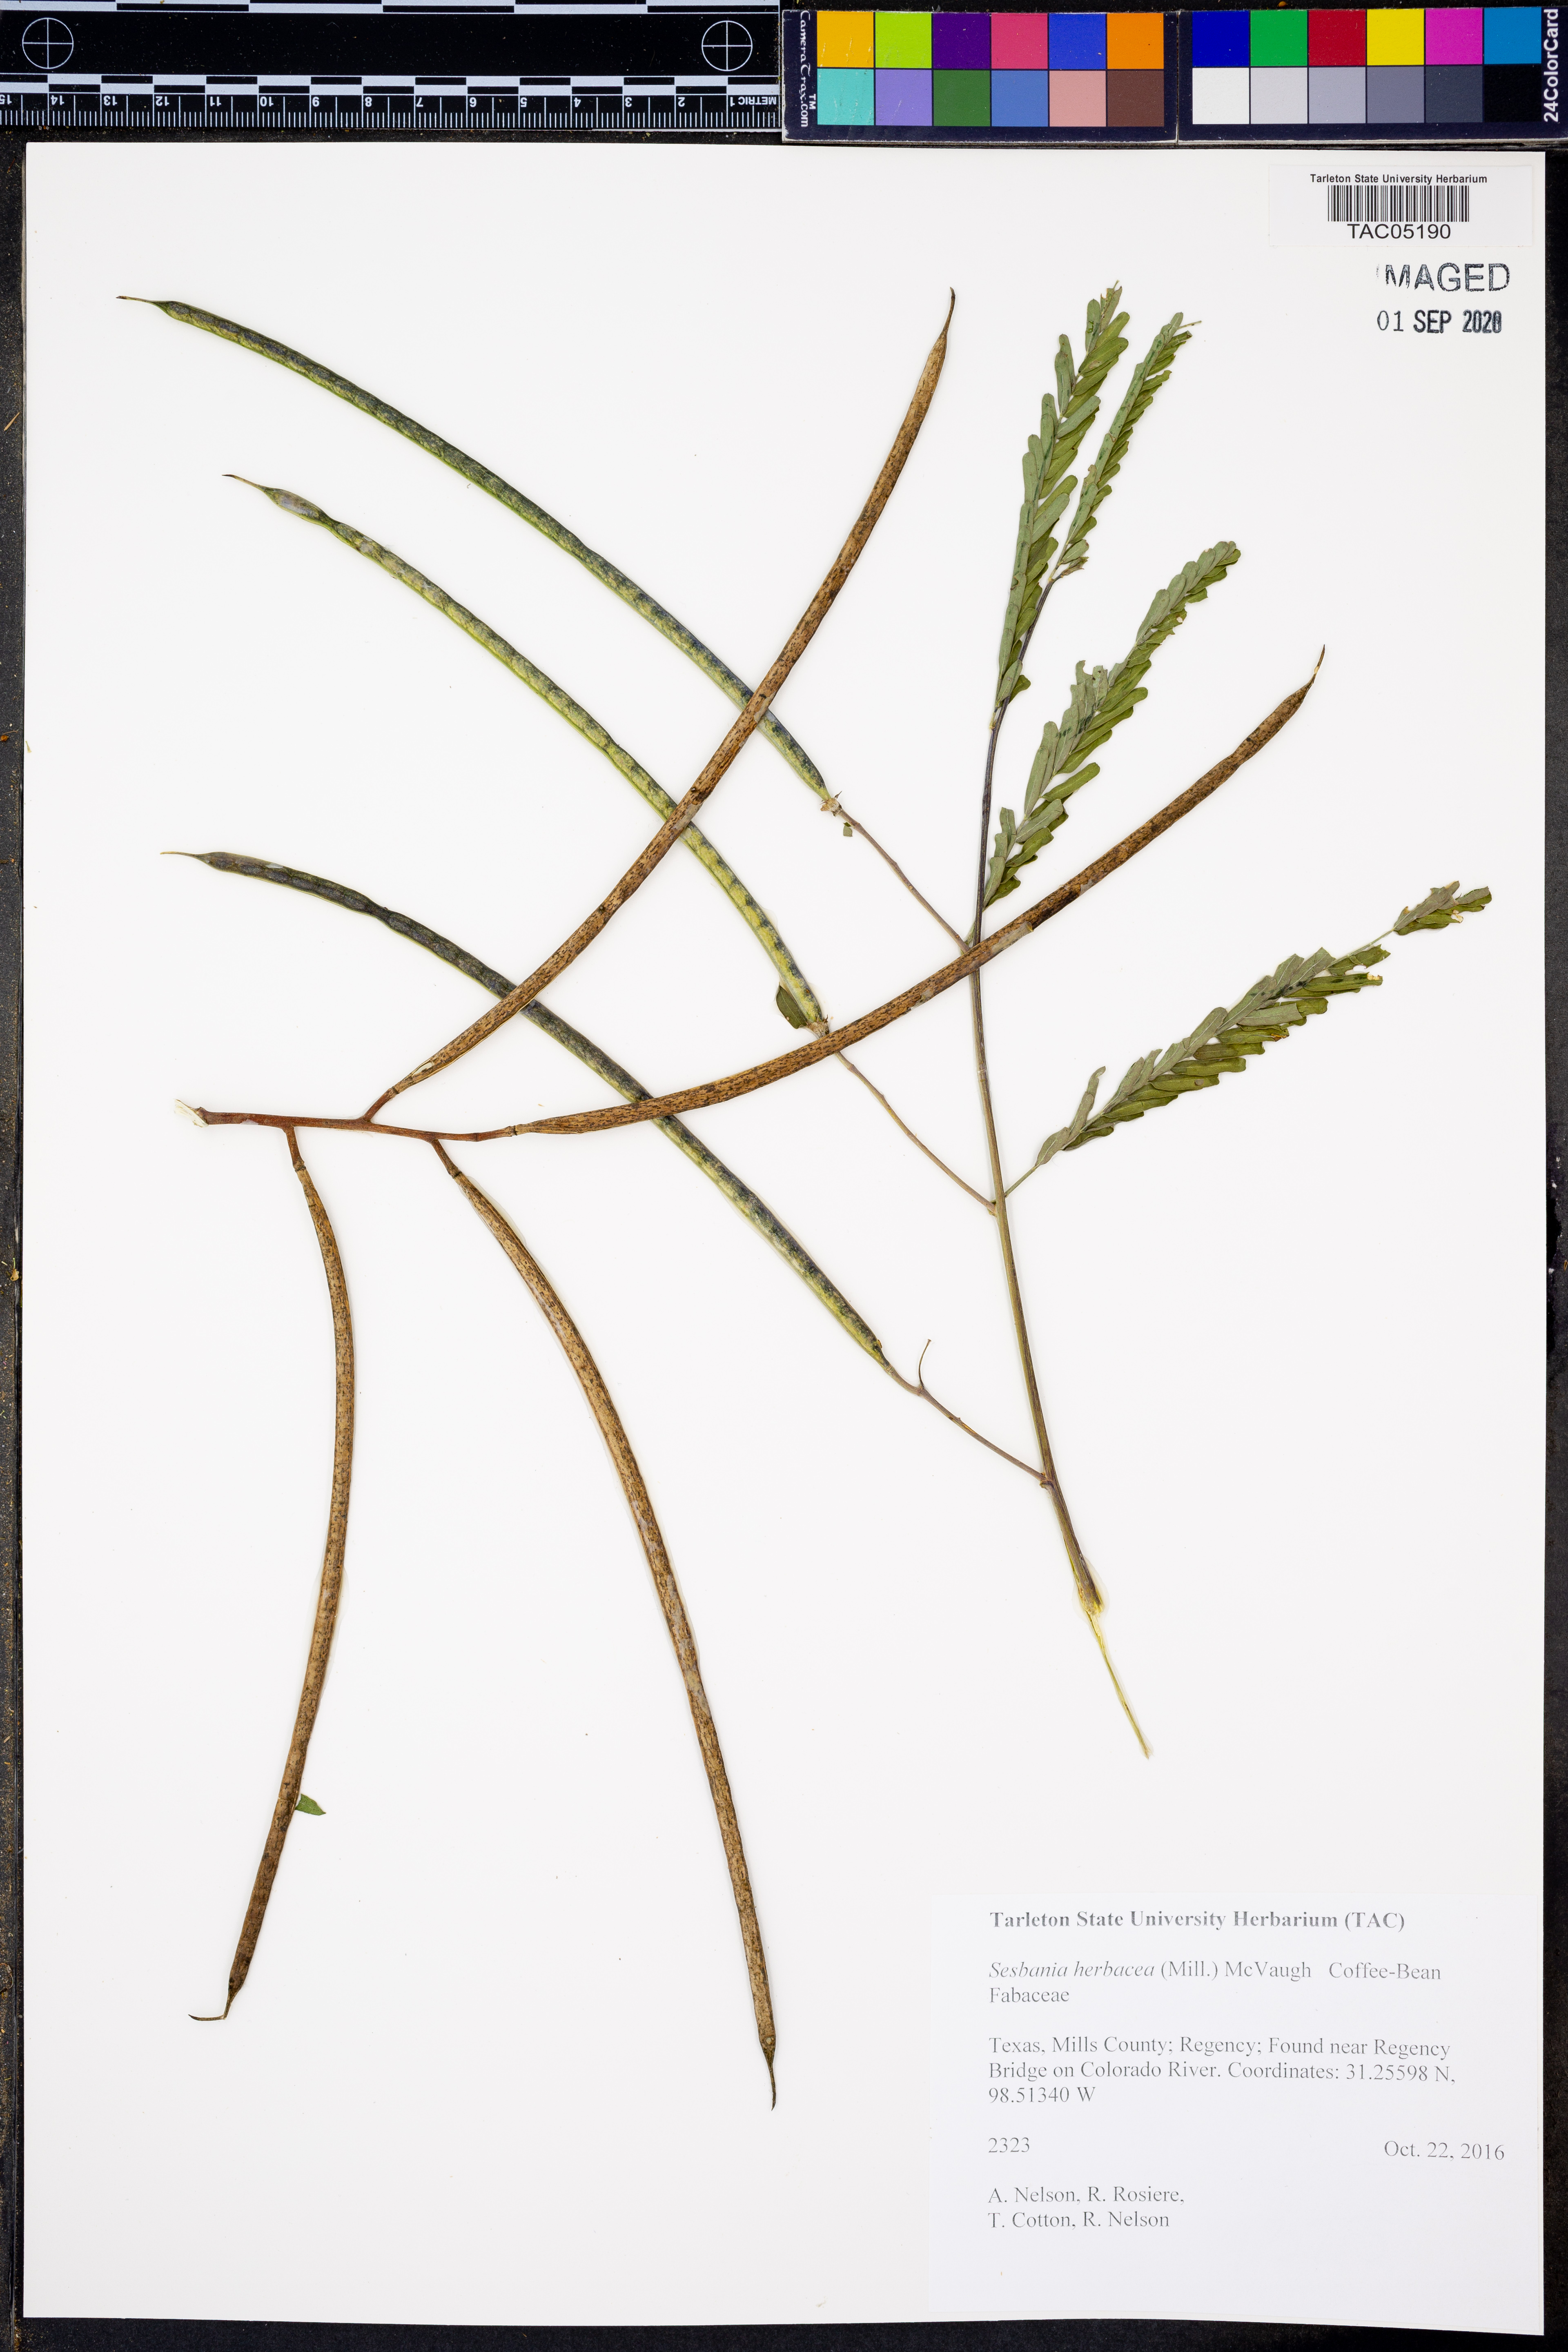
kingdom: Plantae
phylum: Tracheophyta
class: Magnoliopsida
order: Fabales
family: Fabaceae
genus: Sesbania
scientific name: Sesbania herbacea
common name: Bigpod sesbania
